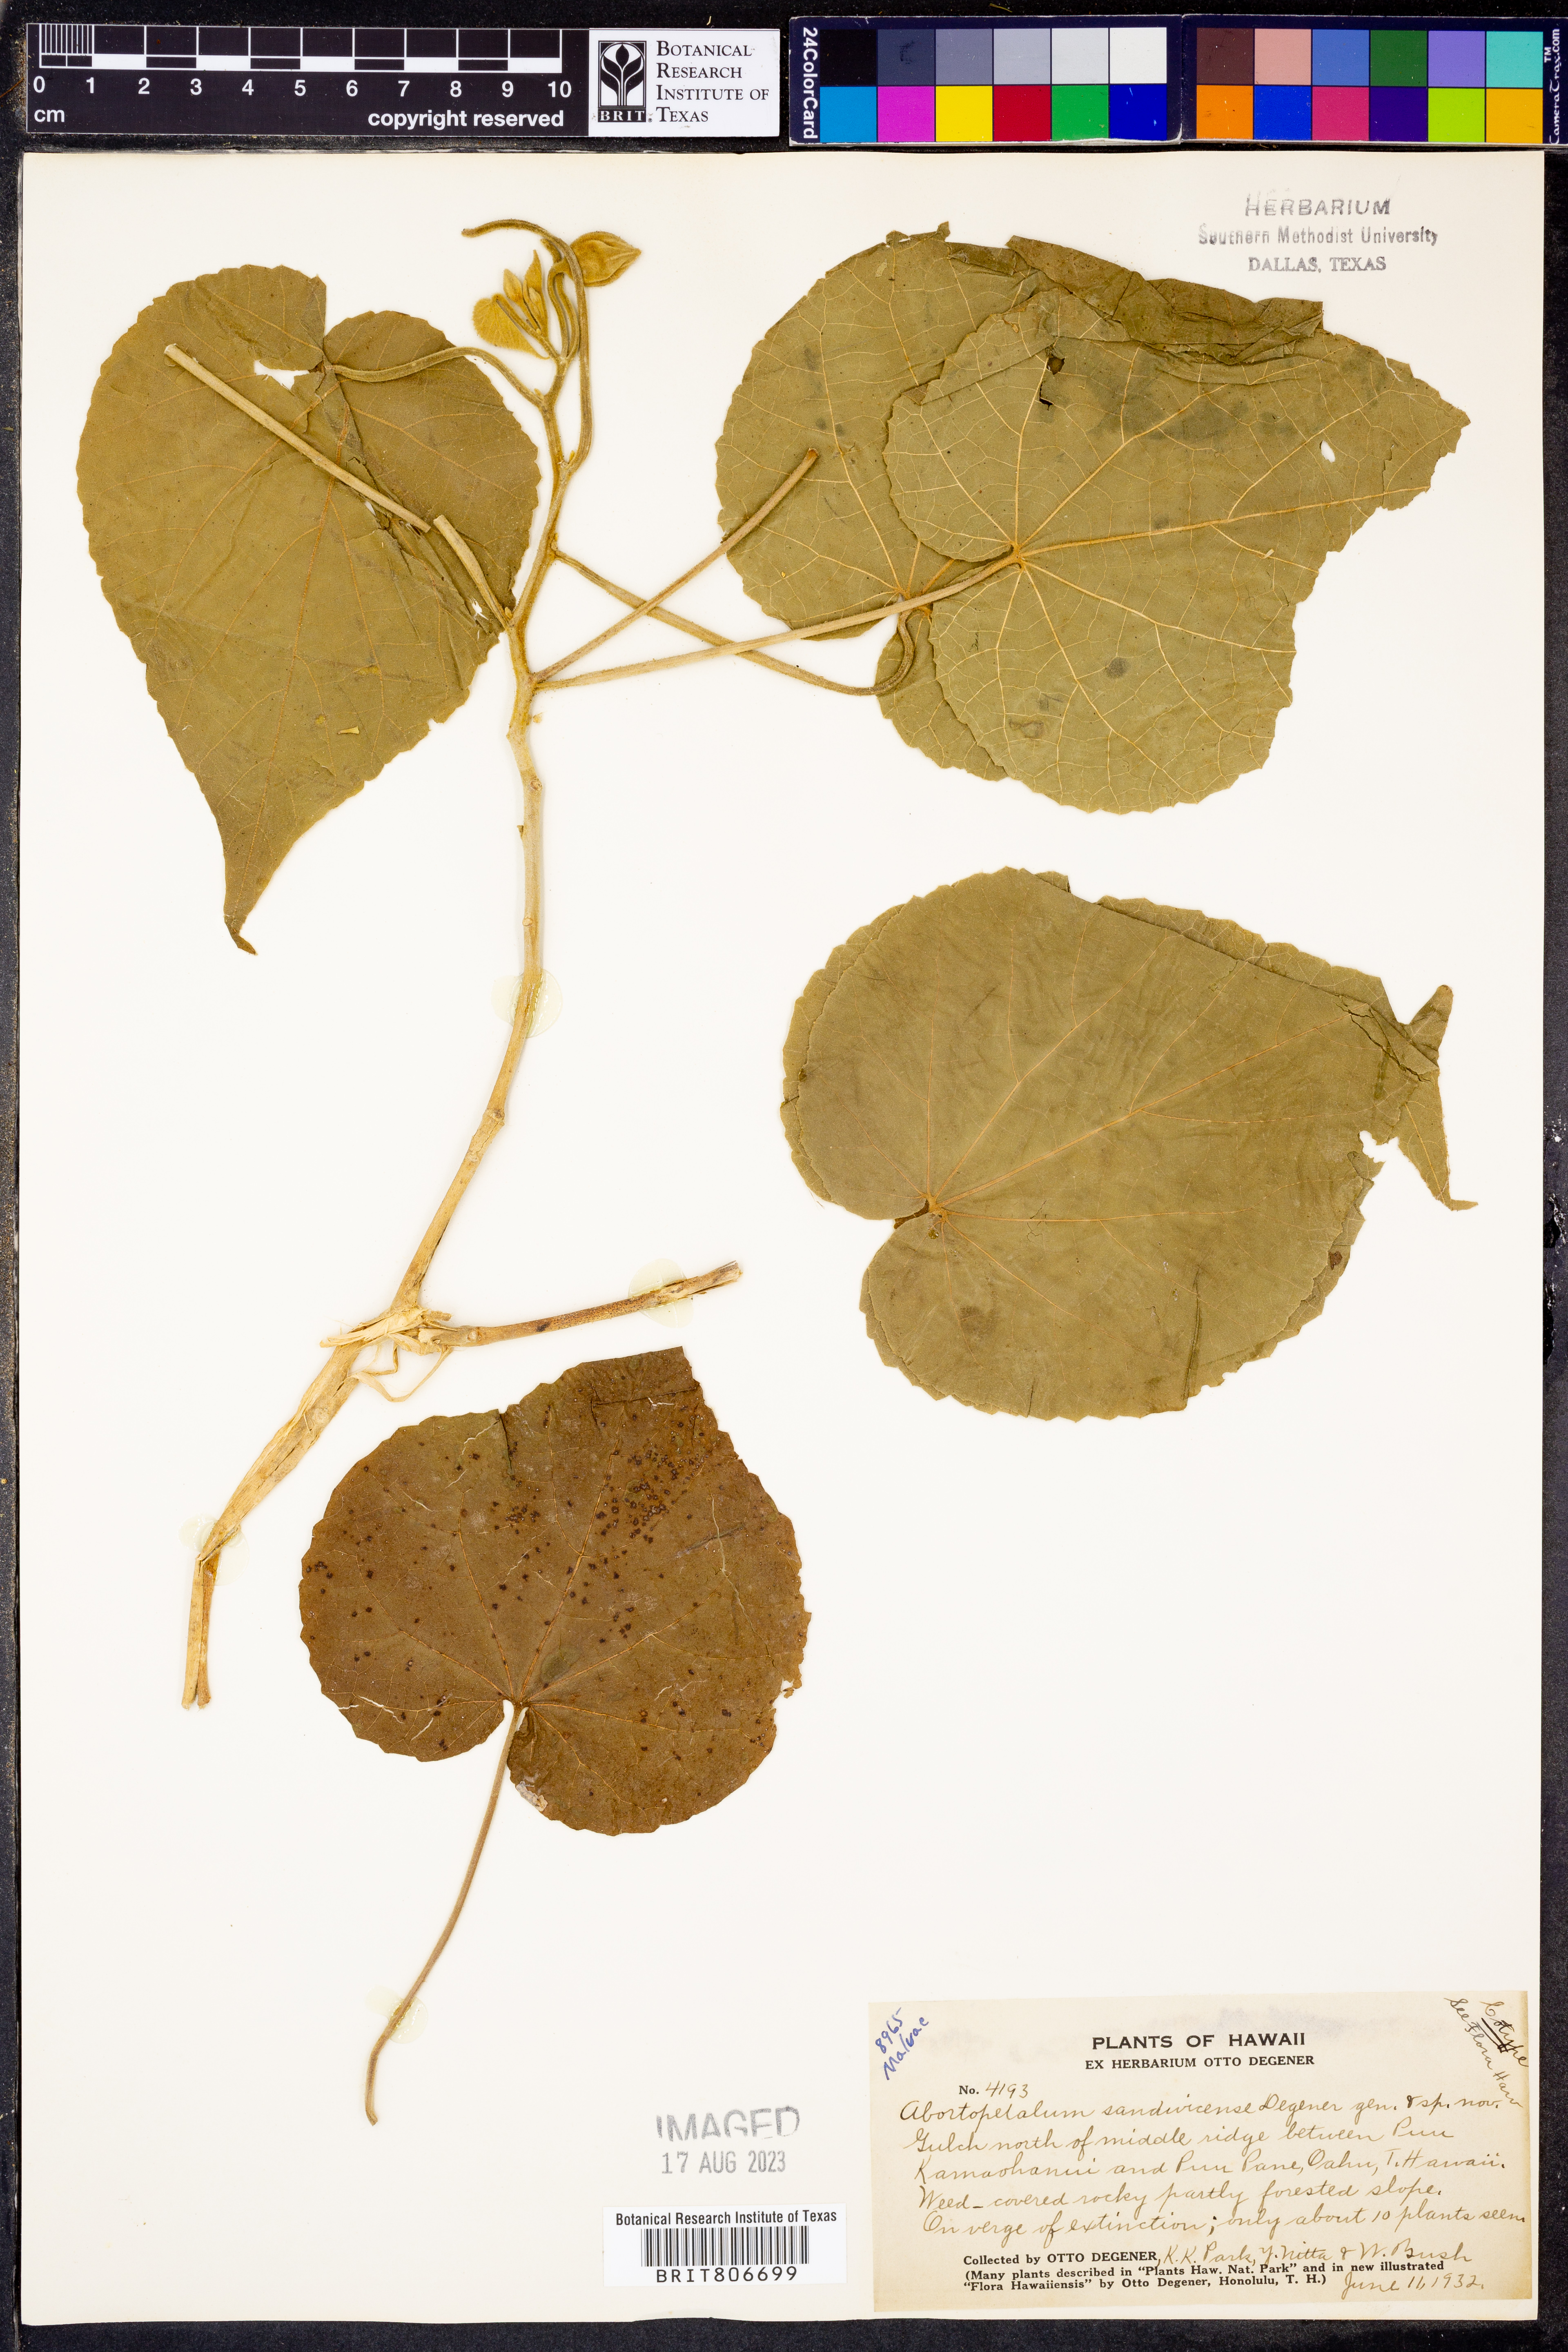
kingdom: Plantae
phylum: Tracheophyta
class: Magnoliopsida
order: Malvales
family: Malvaceae
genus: Abutilon
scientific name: Abutilon sandwicense
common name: Greenflower indian mallow
